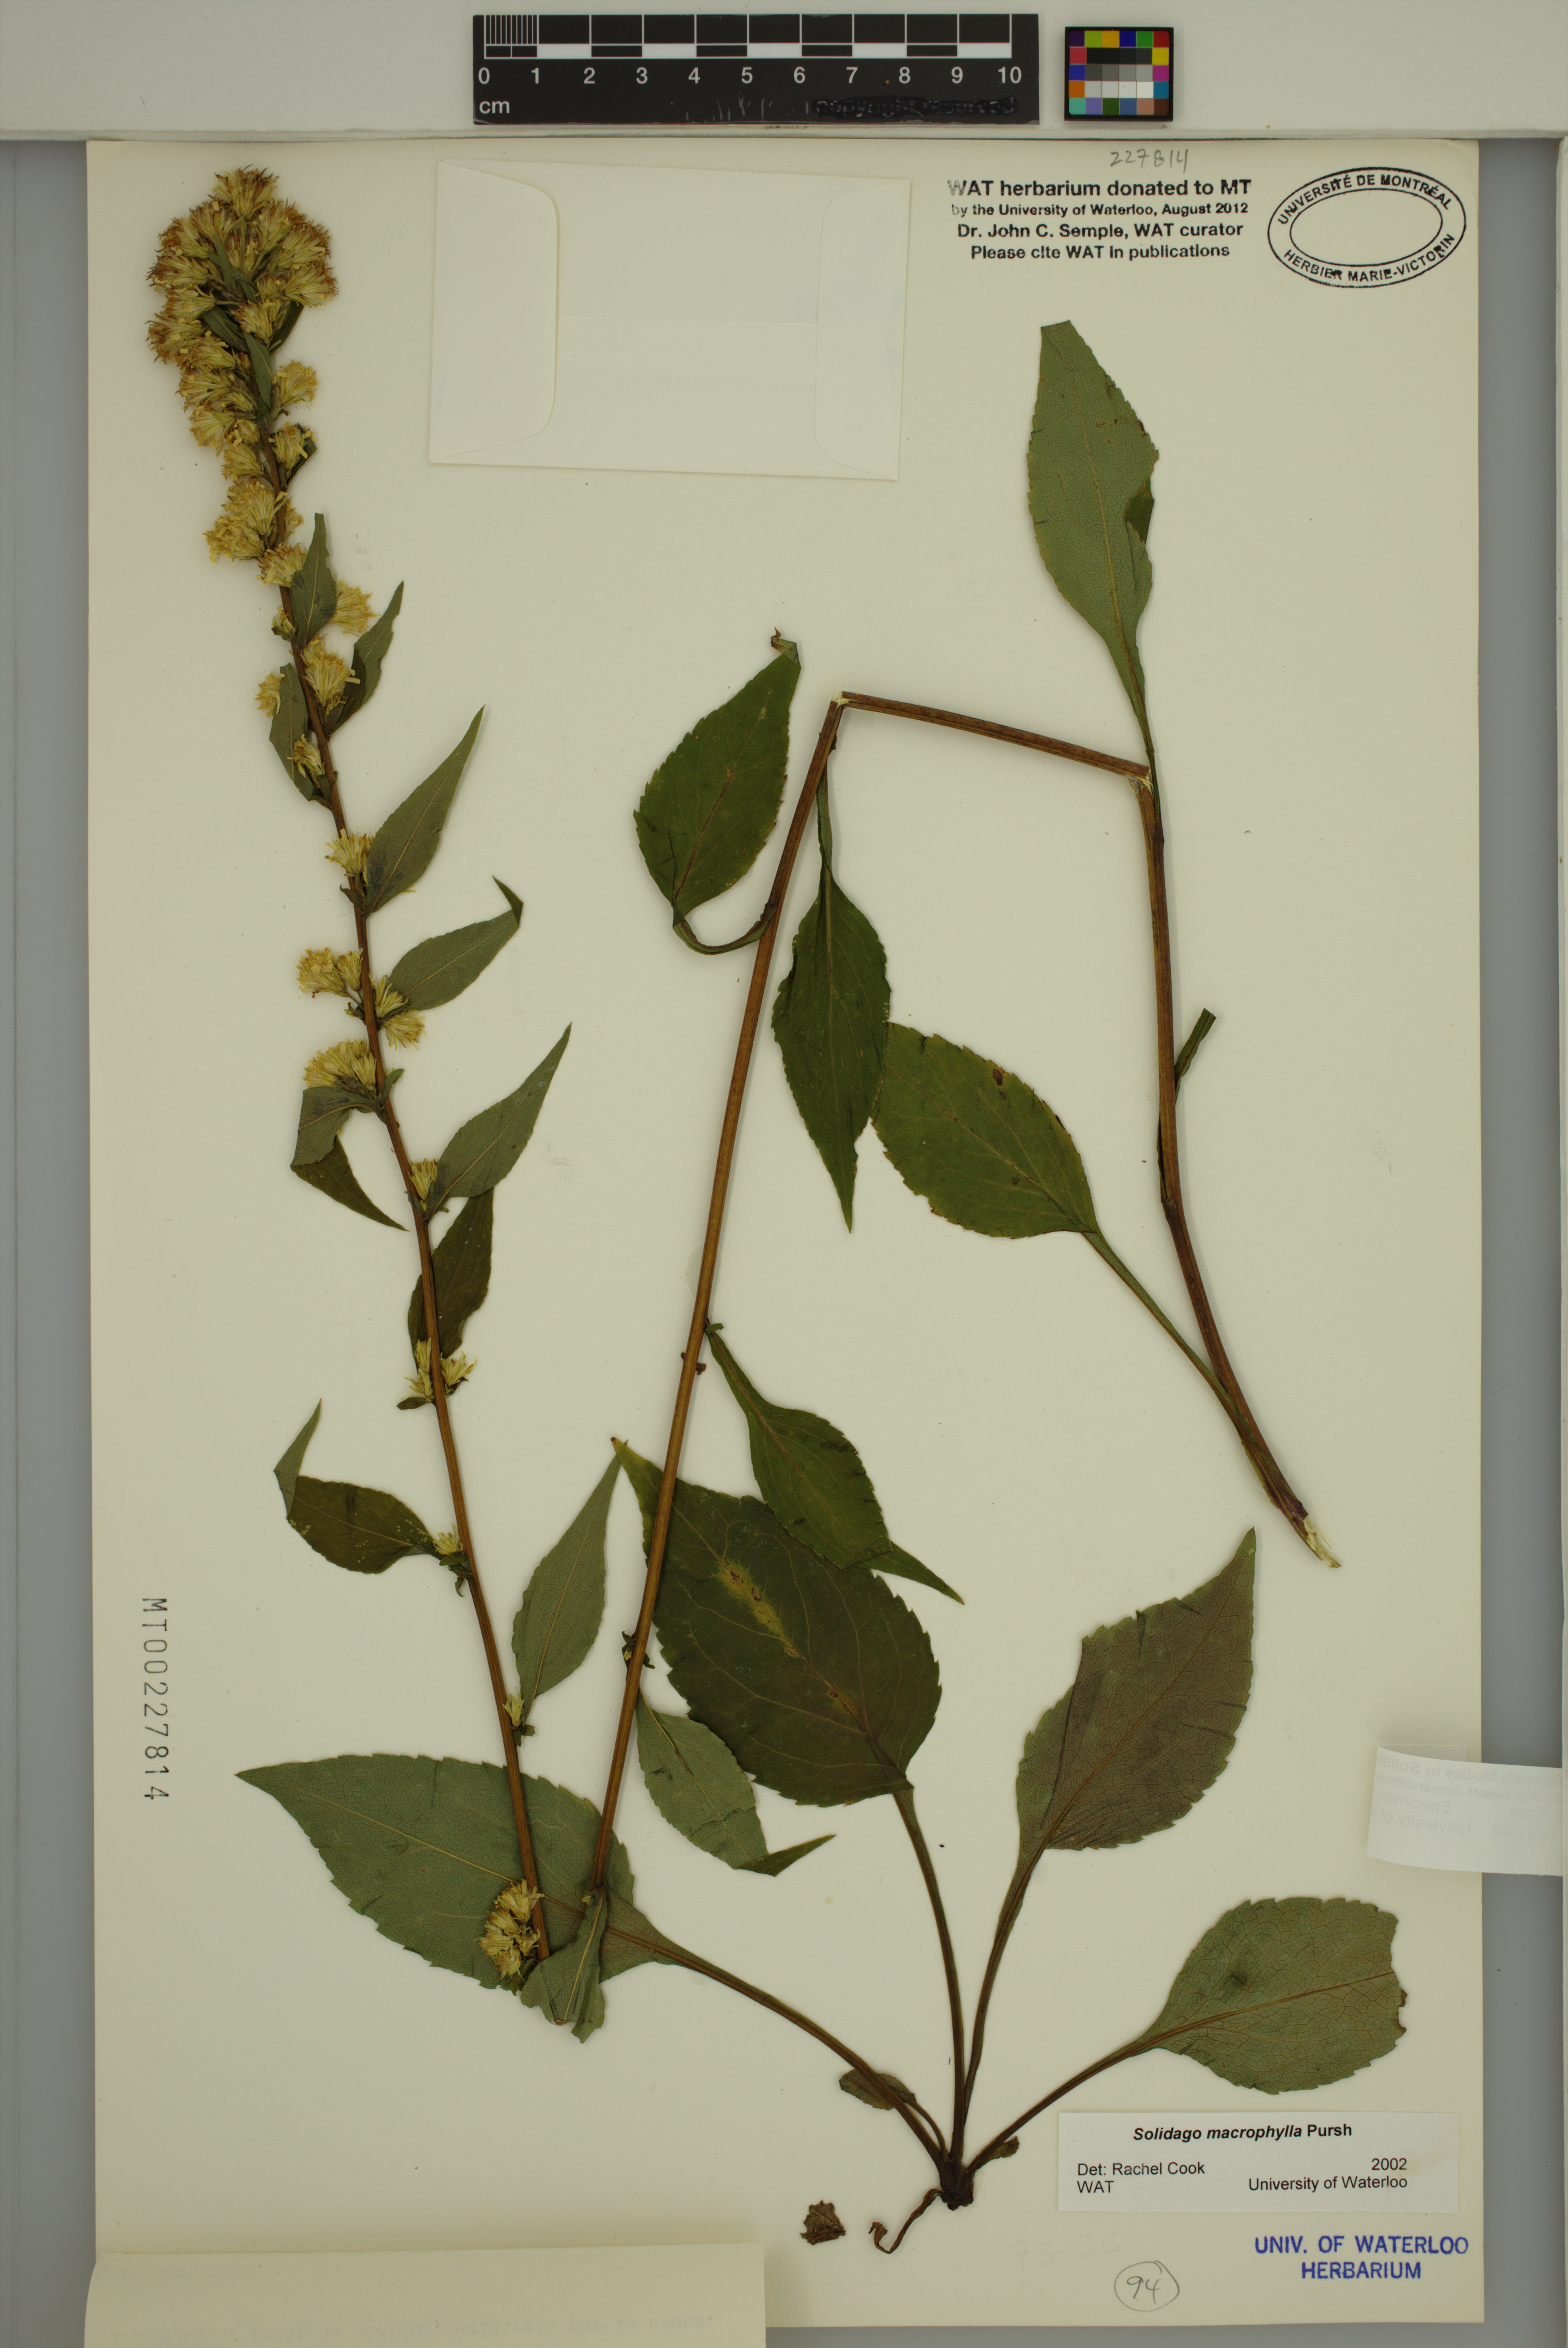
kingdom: Plantae
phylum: Tracheophyta
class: Magnoliopsida
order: Asterales
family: Asteraceae
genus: Solidago
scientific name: Solidago macrophylla
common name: Large-leaved goldenrod
